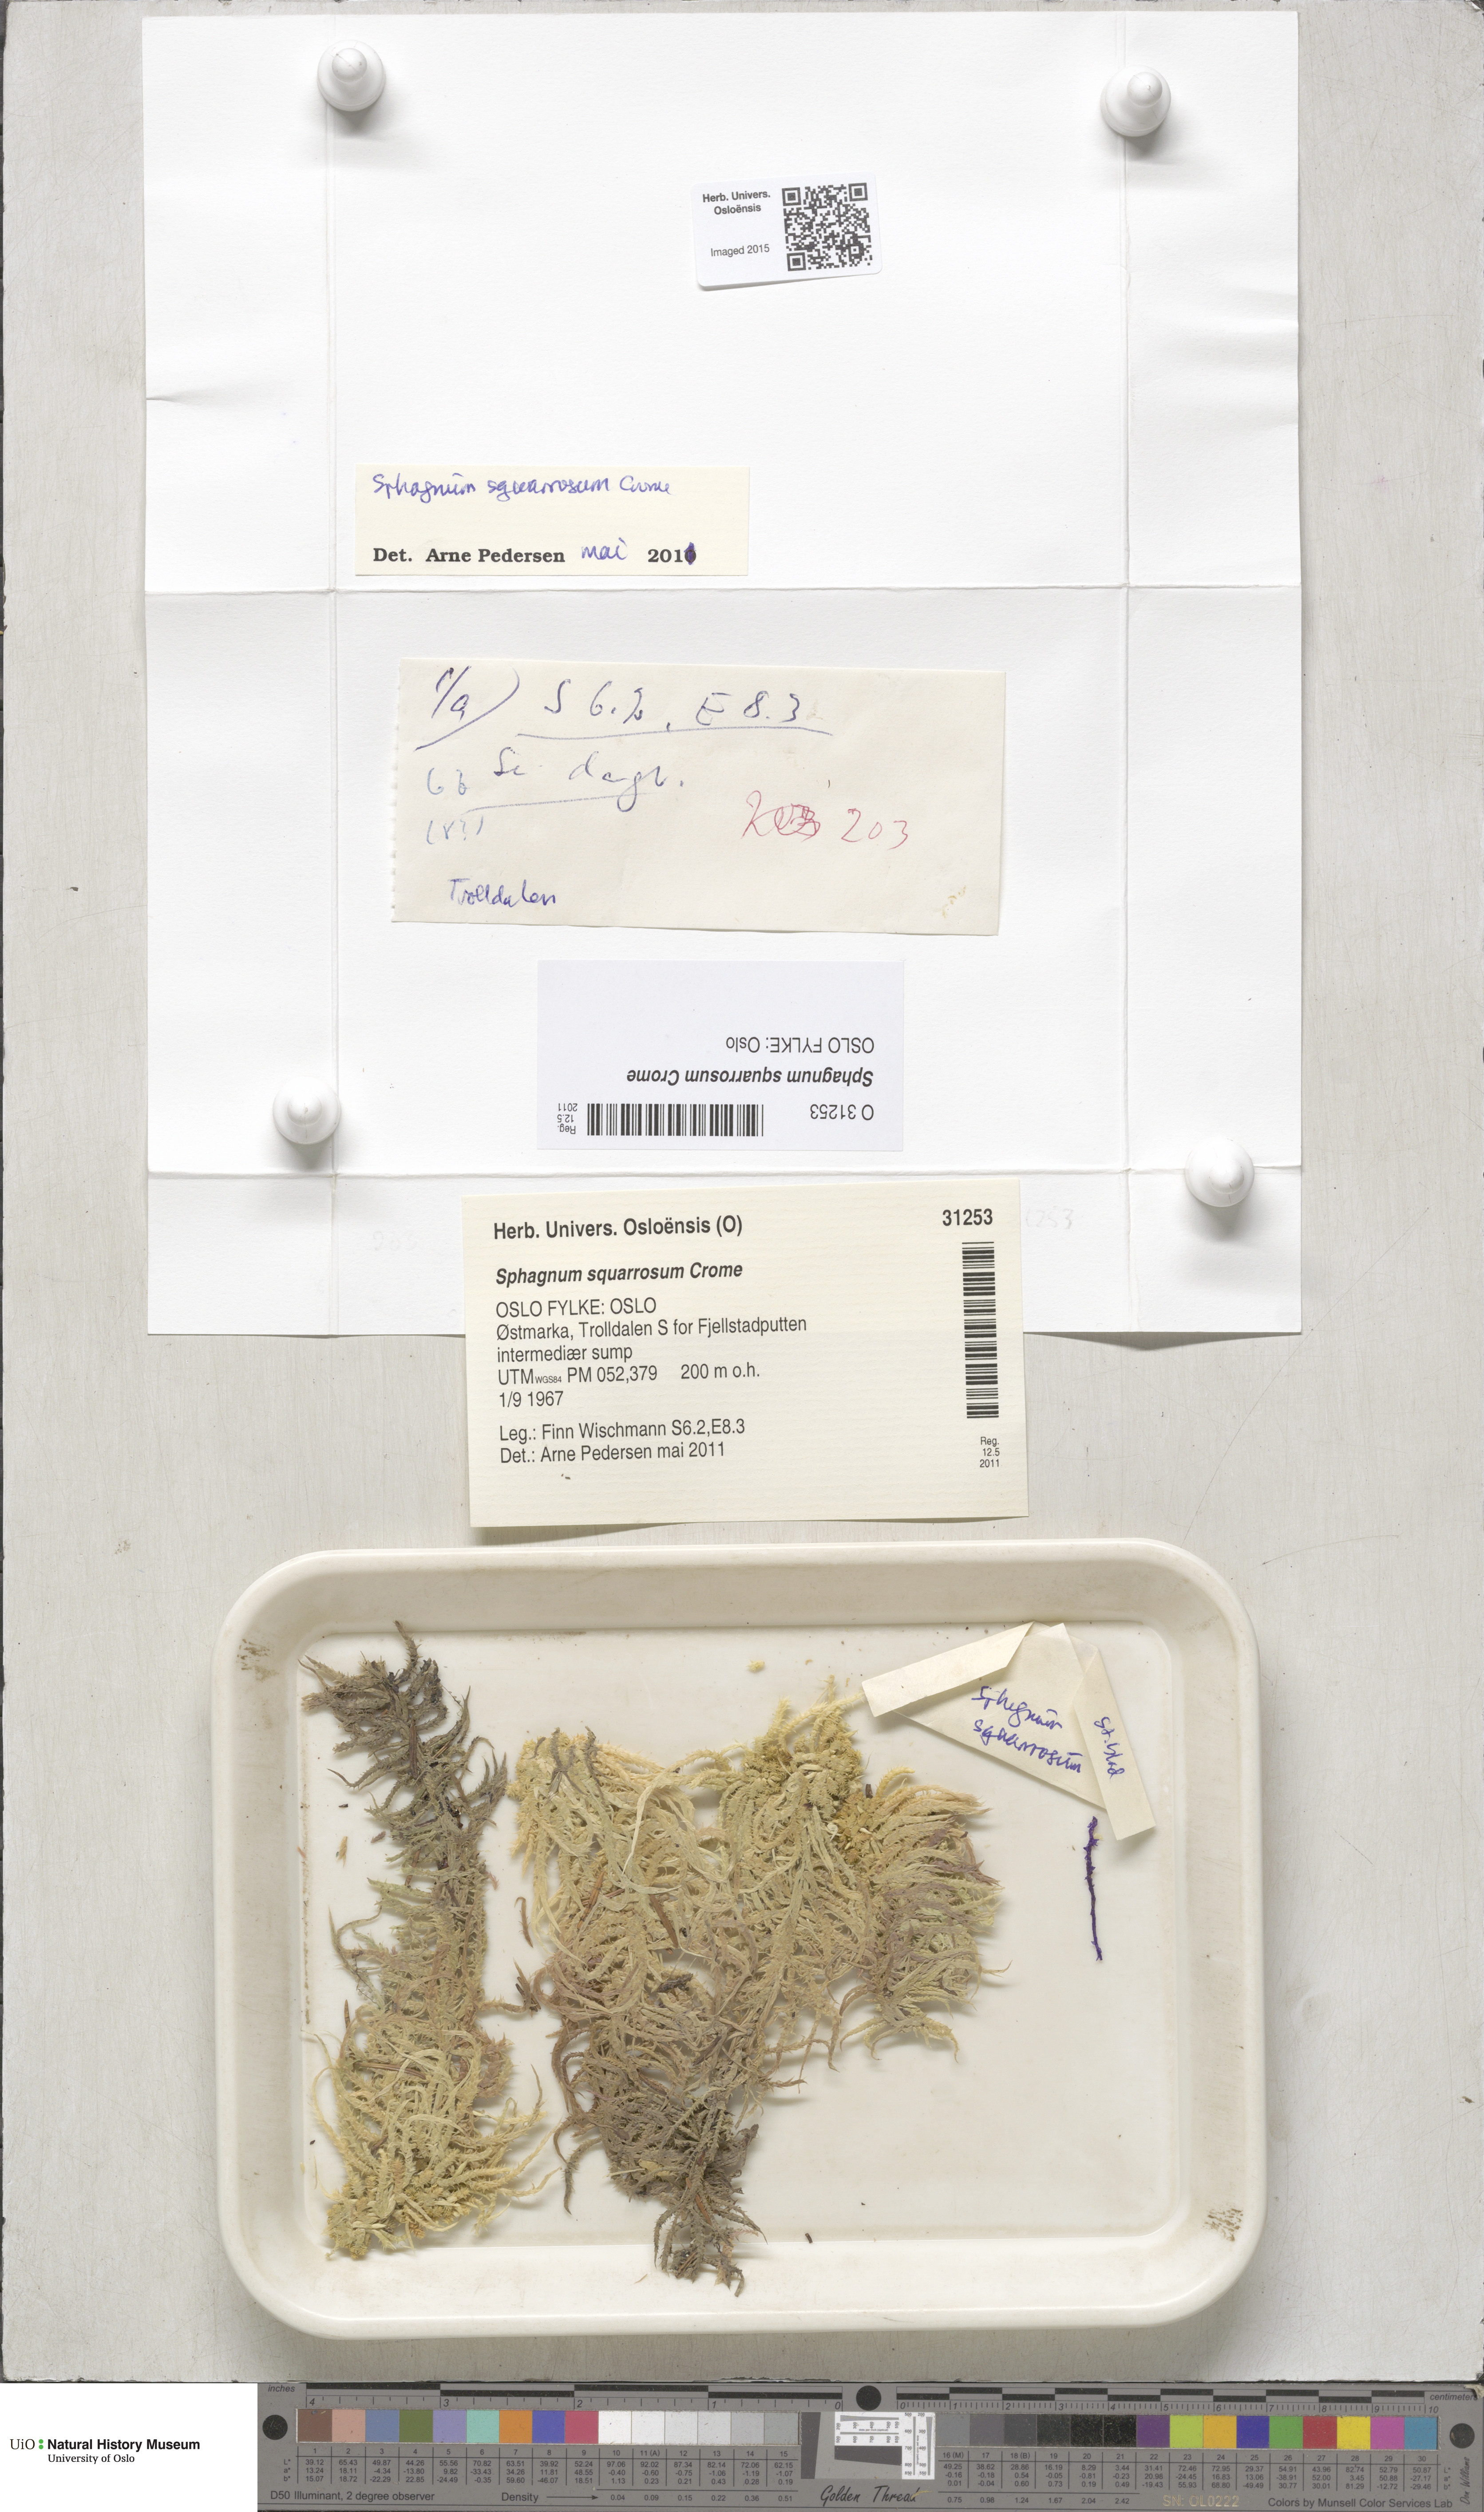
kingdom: Plantae
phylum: Bryophyta
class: Sphagnopsida
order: Sphagnales
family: Sphagnaceae
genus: Sphagnum
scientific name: Sphagnum squarrosum
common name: Shaggy peat moss
